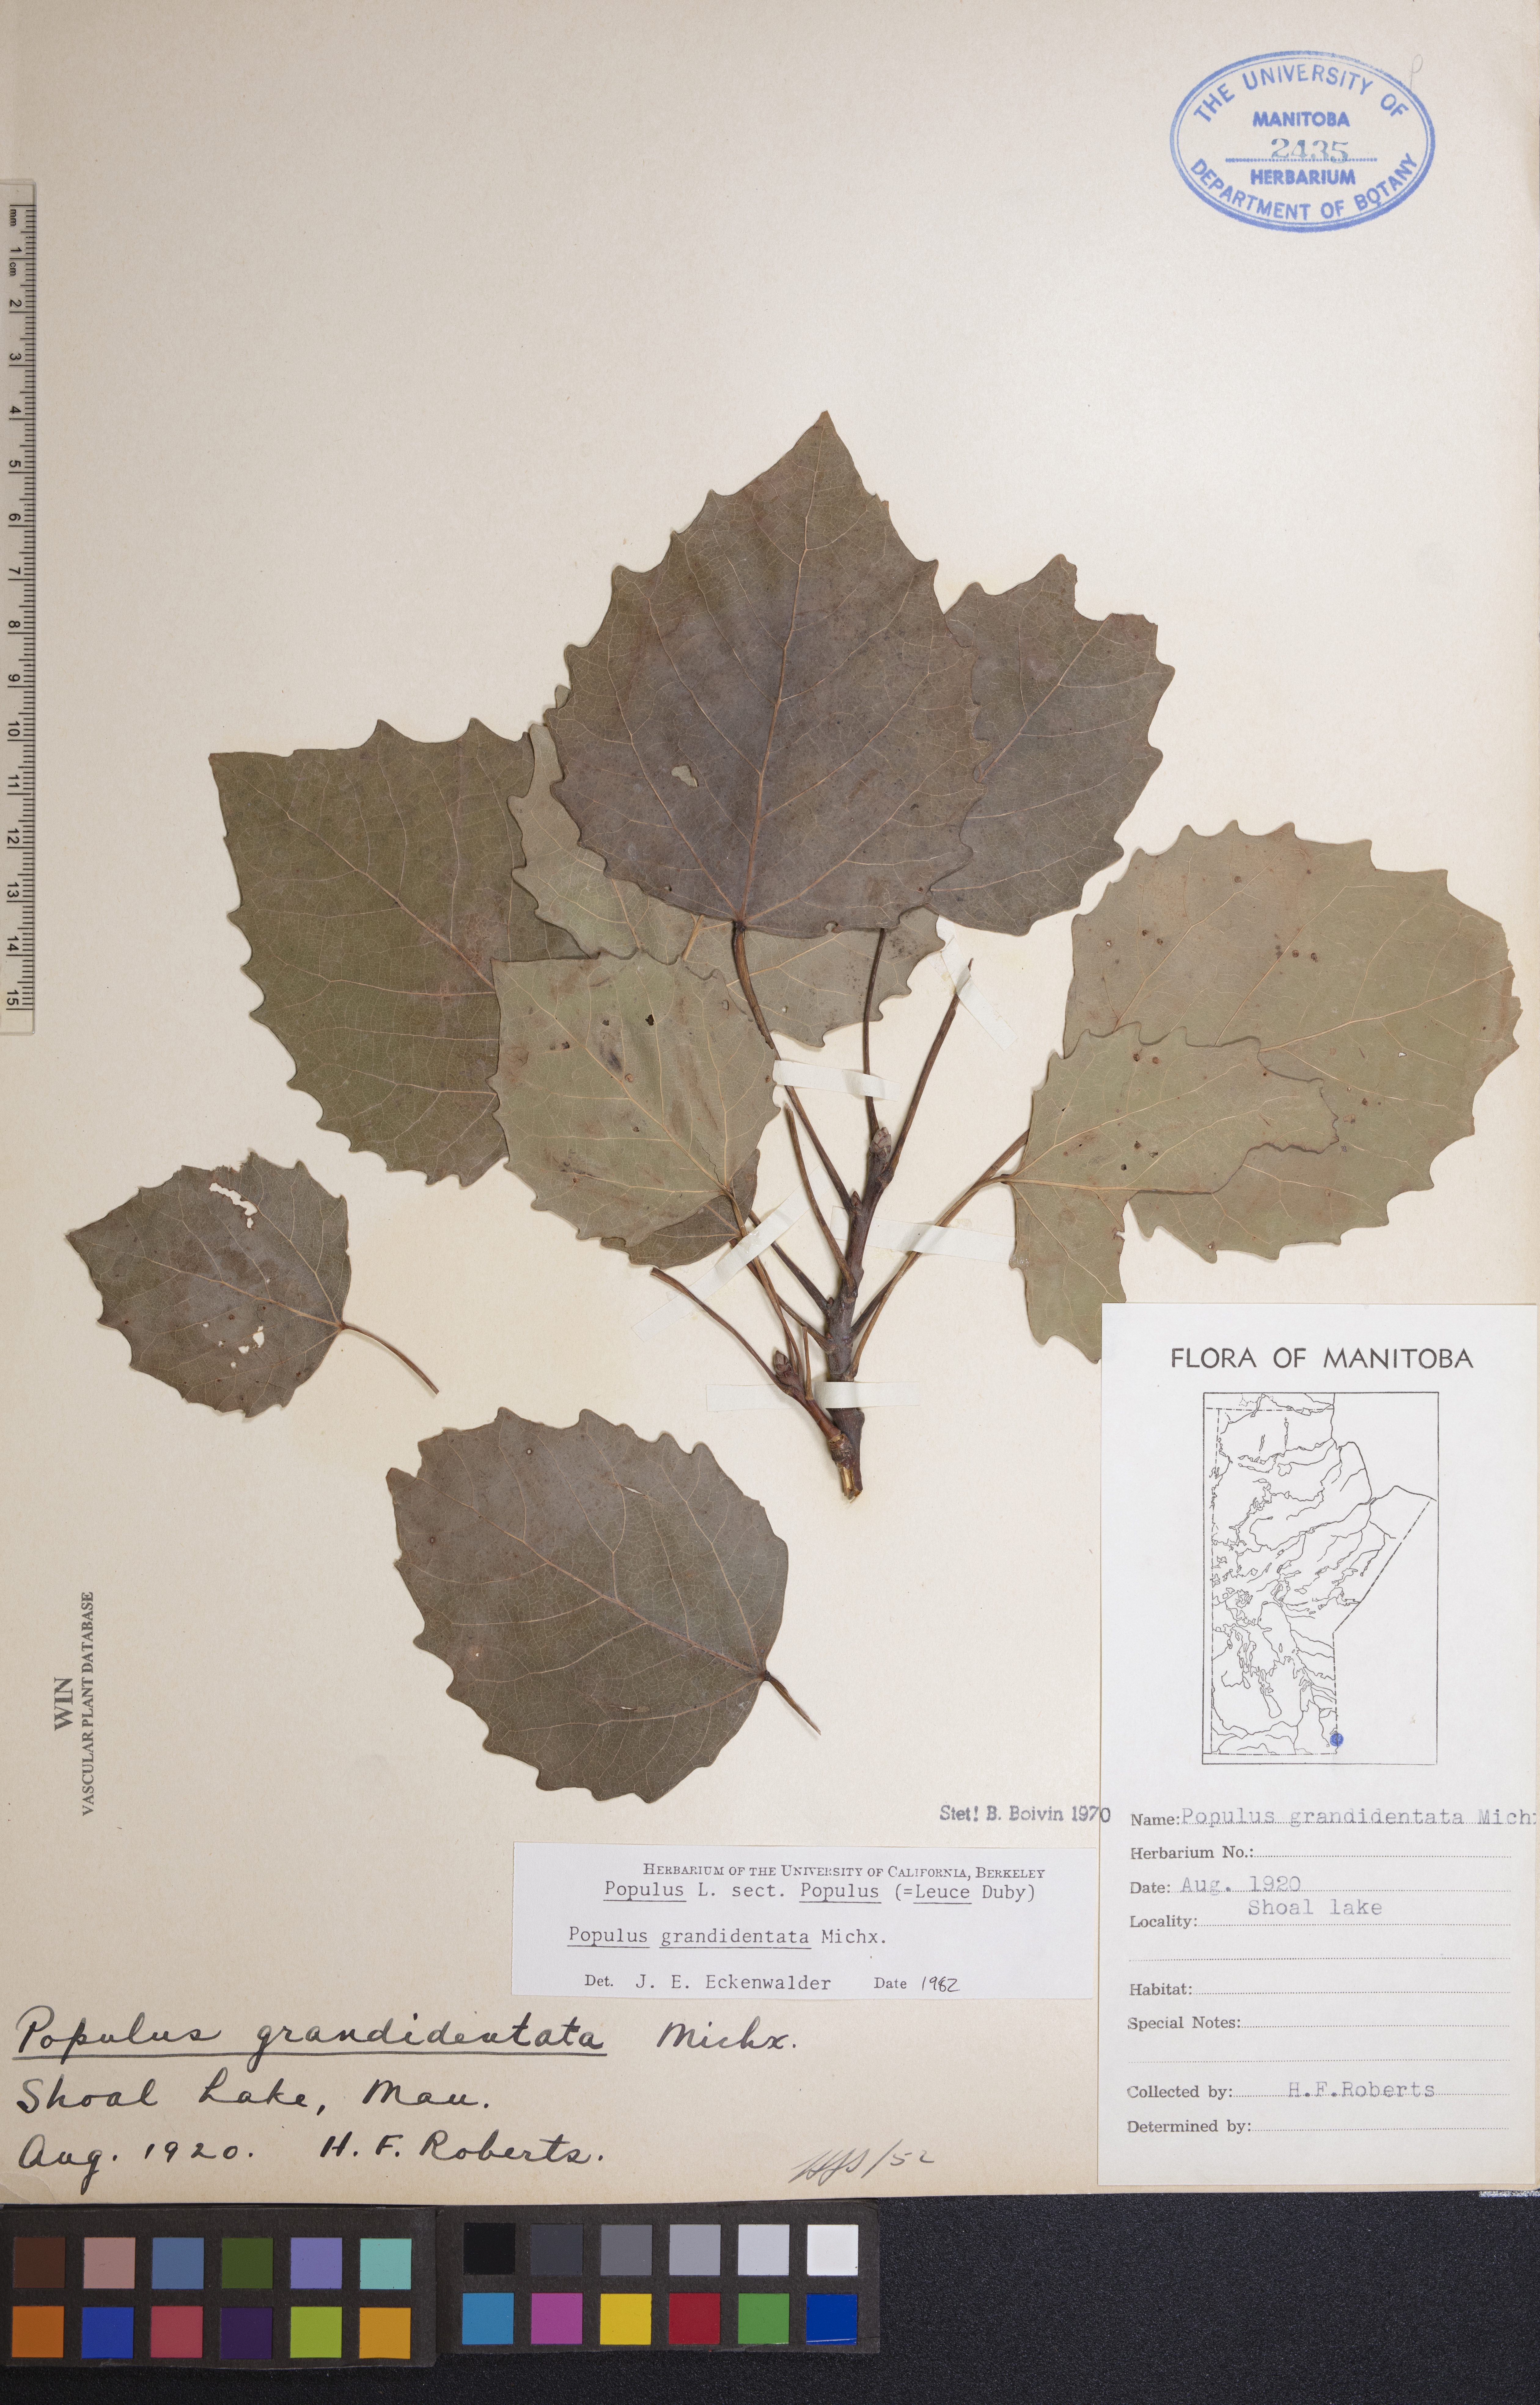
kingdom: Plantae
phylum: Tracheophyta
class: Magnoliopsida
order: Malpighiales
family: Salicaceae
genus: Populus
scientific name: Populus grandidentata
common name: Bigtooth aspen
